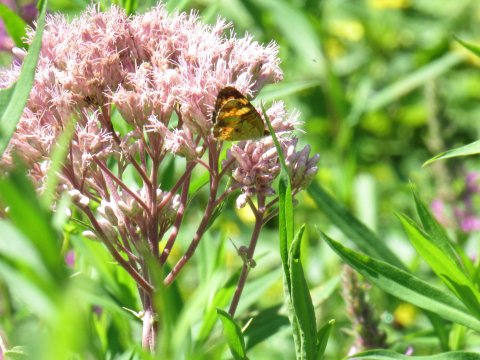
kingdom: Animalia
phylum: Arthropoda
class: Insecta
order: Lepidoptera
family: Nymphalidae
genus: Phyciodes
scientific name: Phyciodes tharos
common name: Pearl Crescent
